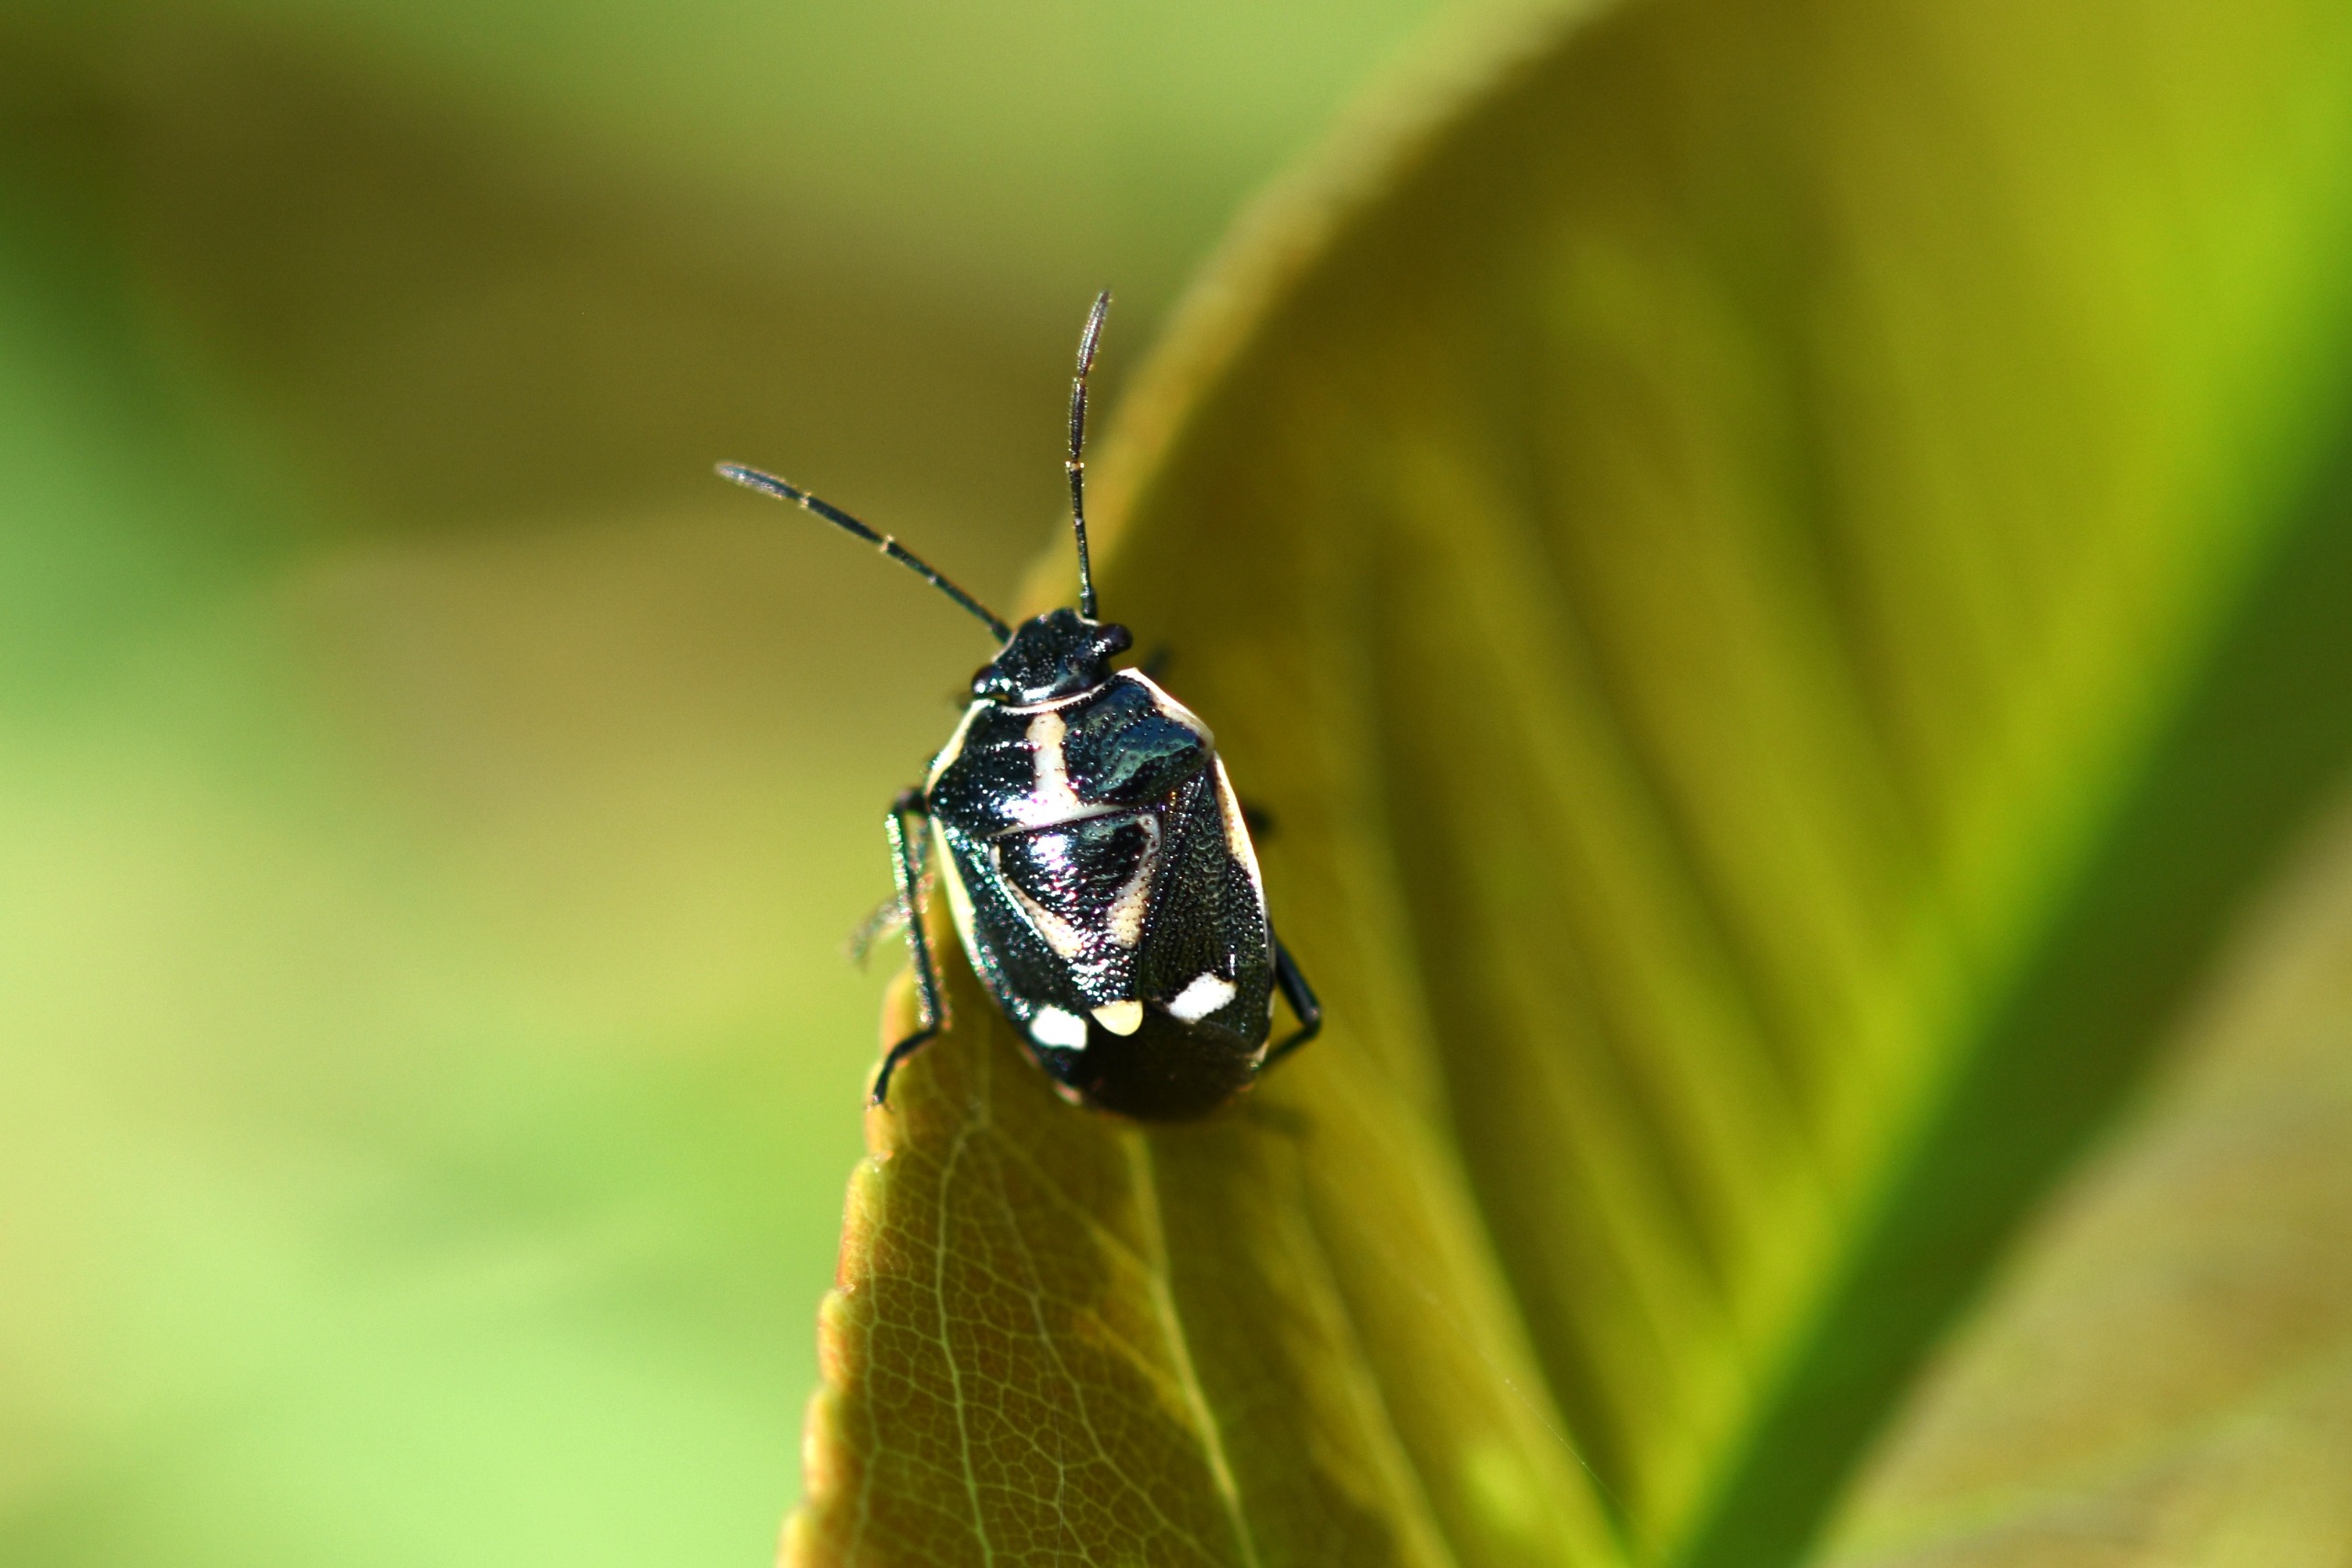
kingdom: Animalia
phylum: Arthropoda
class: Insecta
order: Hemiptera
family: Pentatomidae
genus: Eurydema
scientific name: Eurydema oleracea
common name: Almindelig kåltæge
